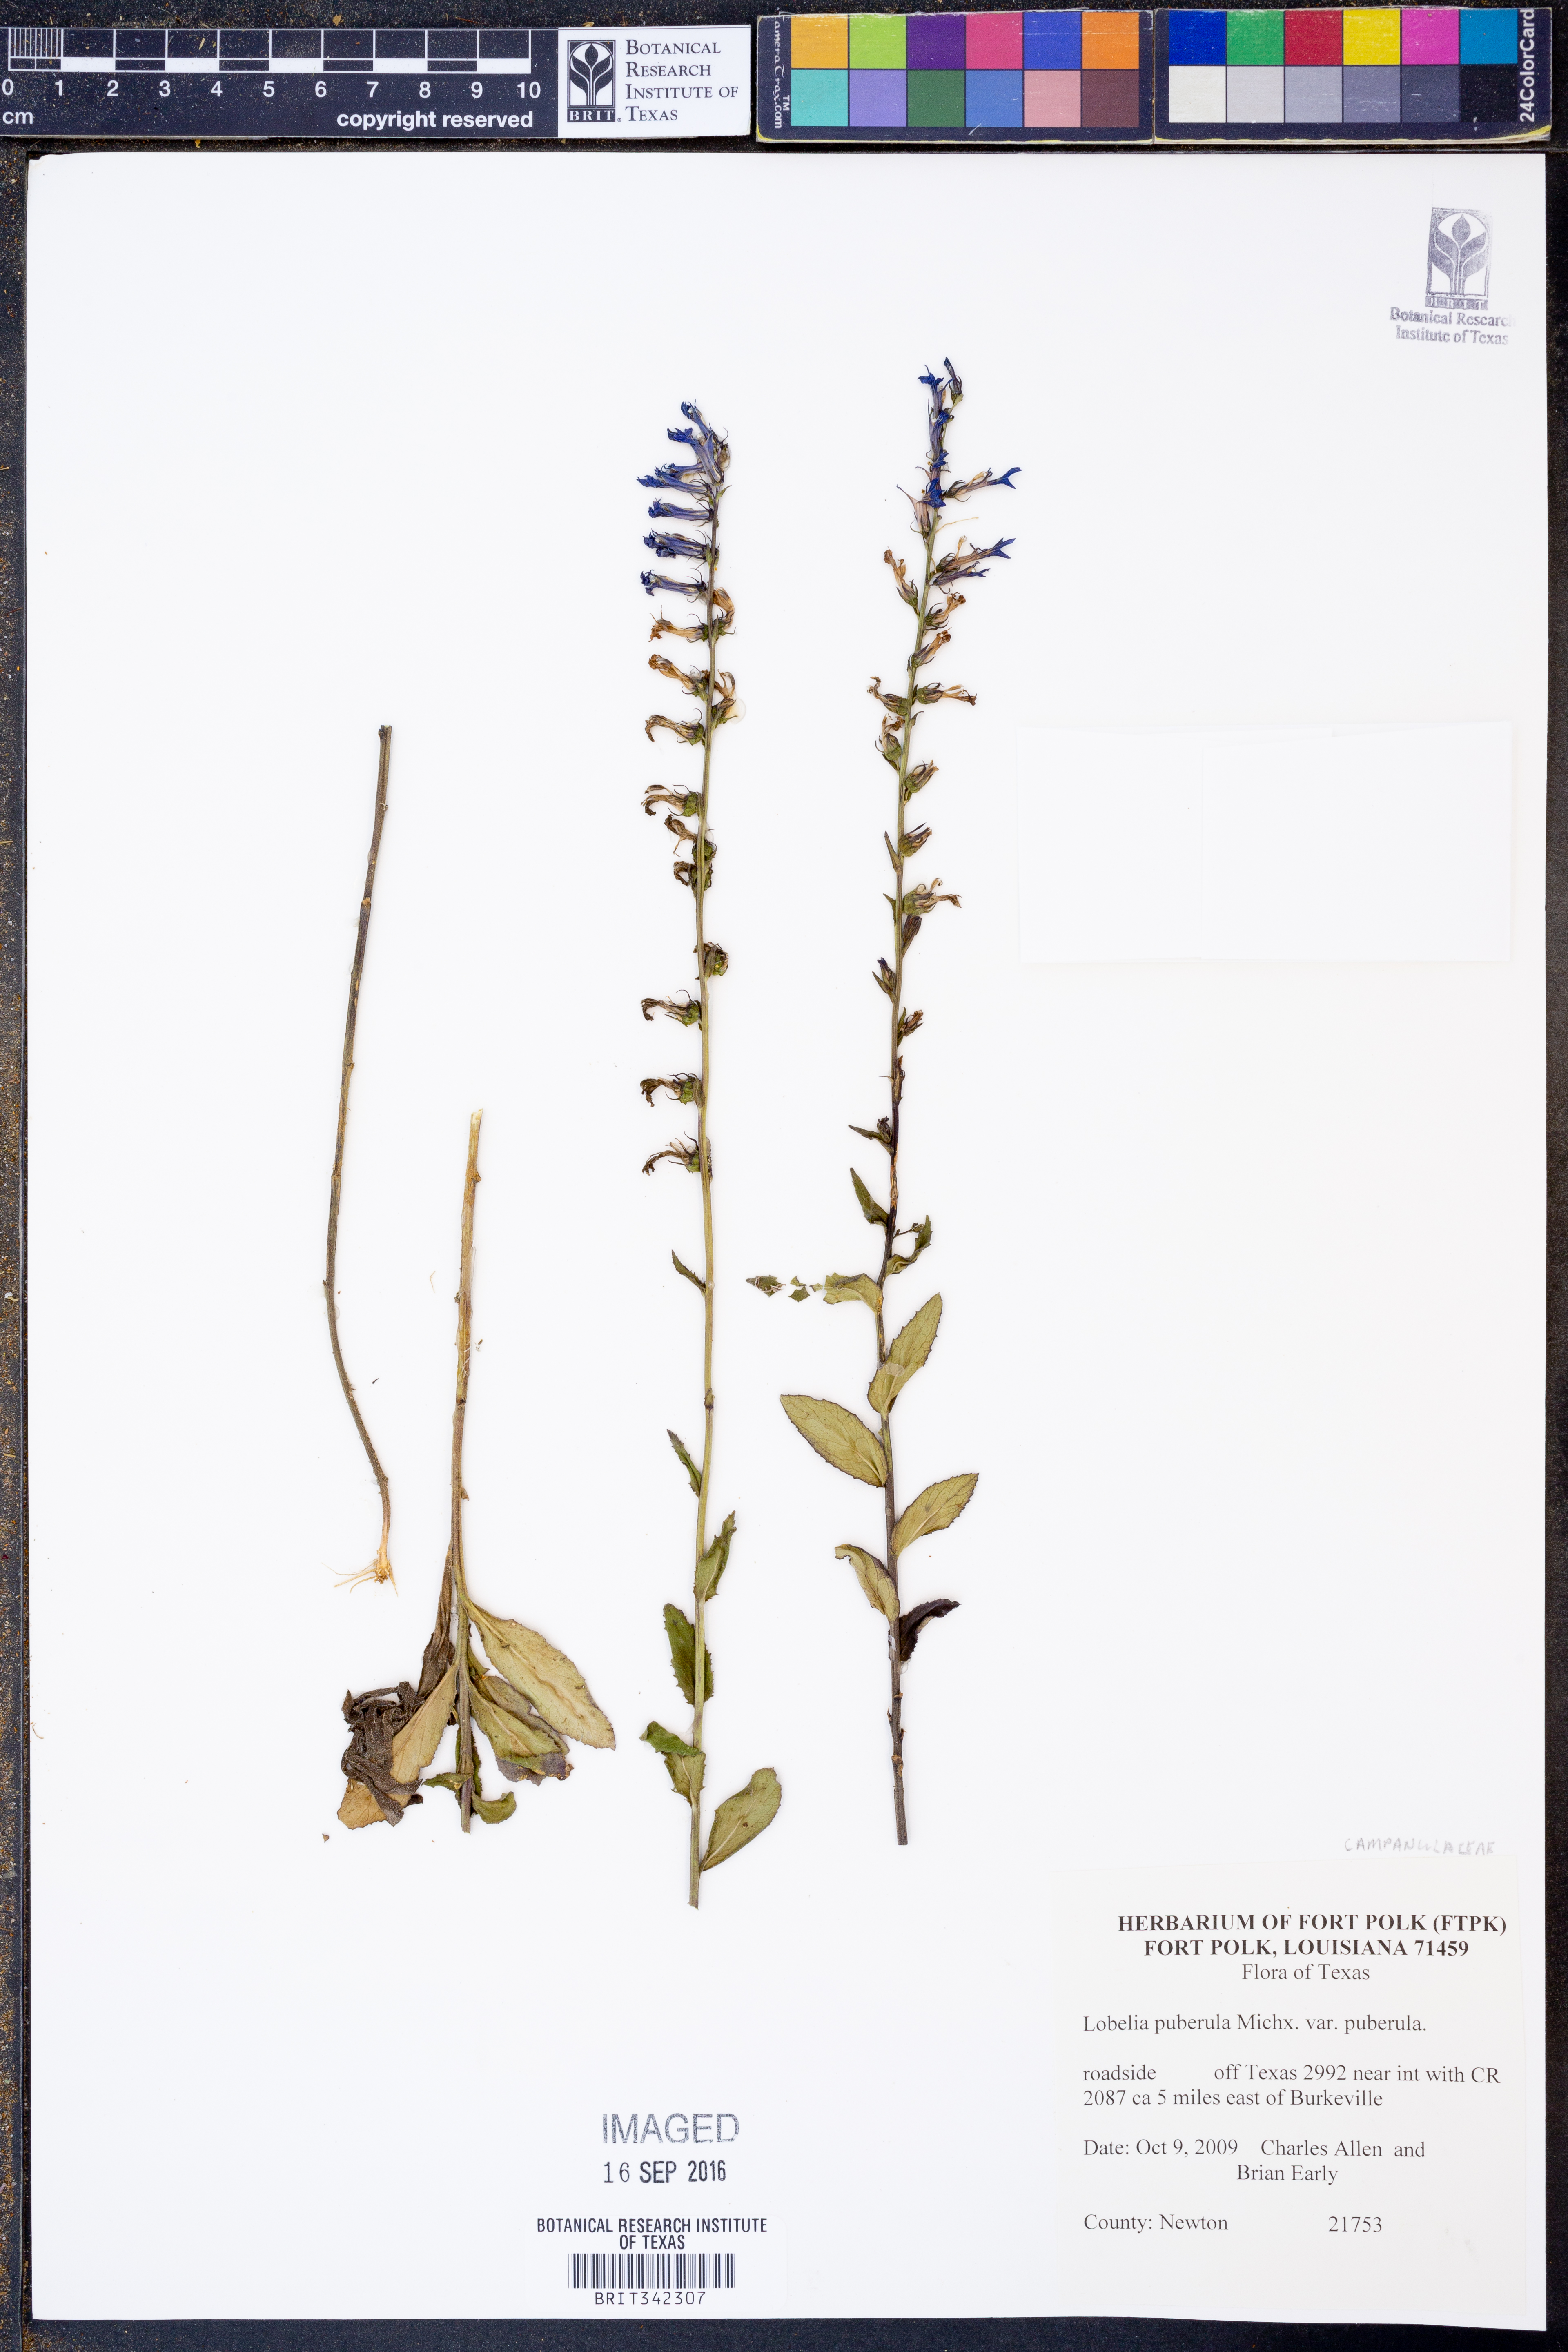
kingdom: Plantae
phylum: Tracheophyta
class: Magnoliopsida
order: Asterales
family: Campanulaceae
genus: Lobelia
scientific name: Lobelia puberula
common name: Purple dewdrop
